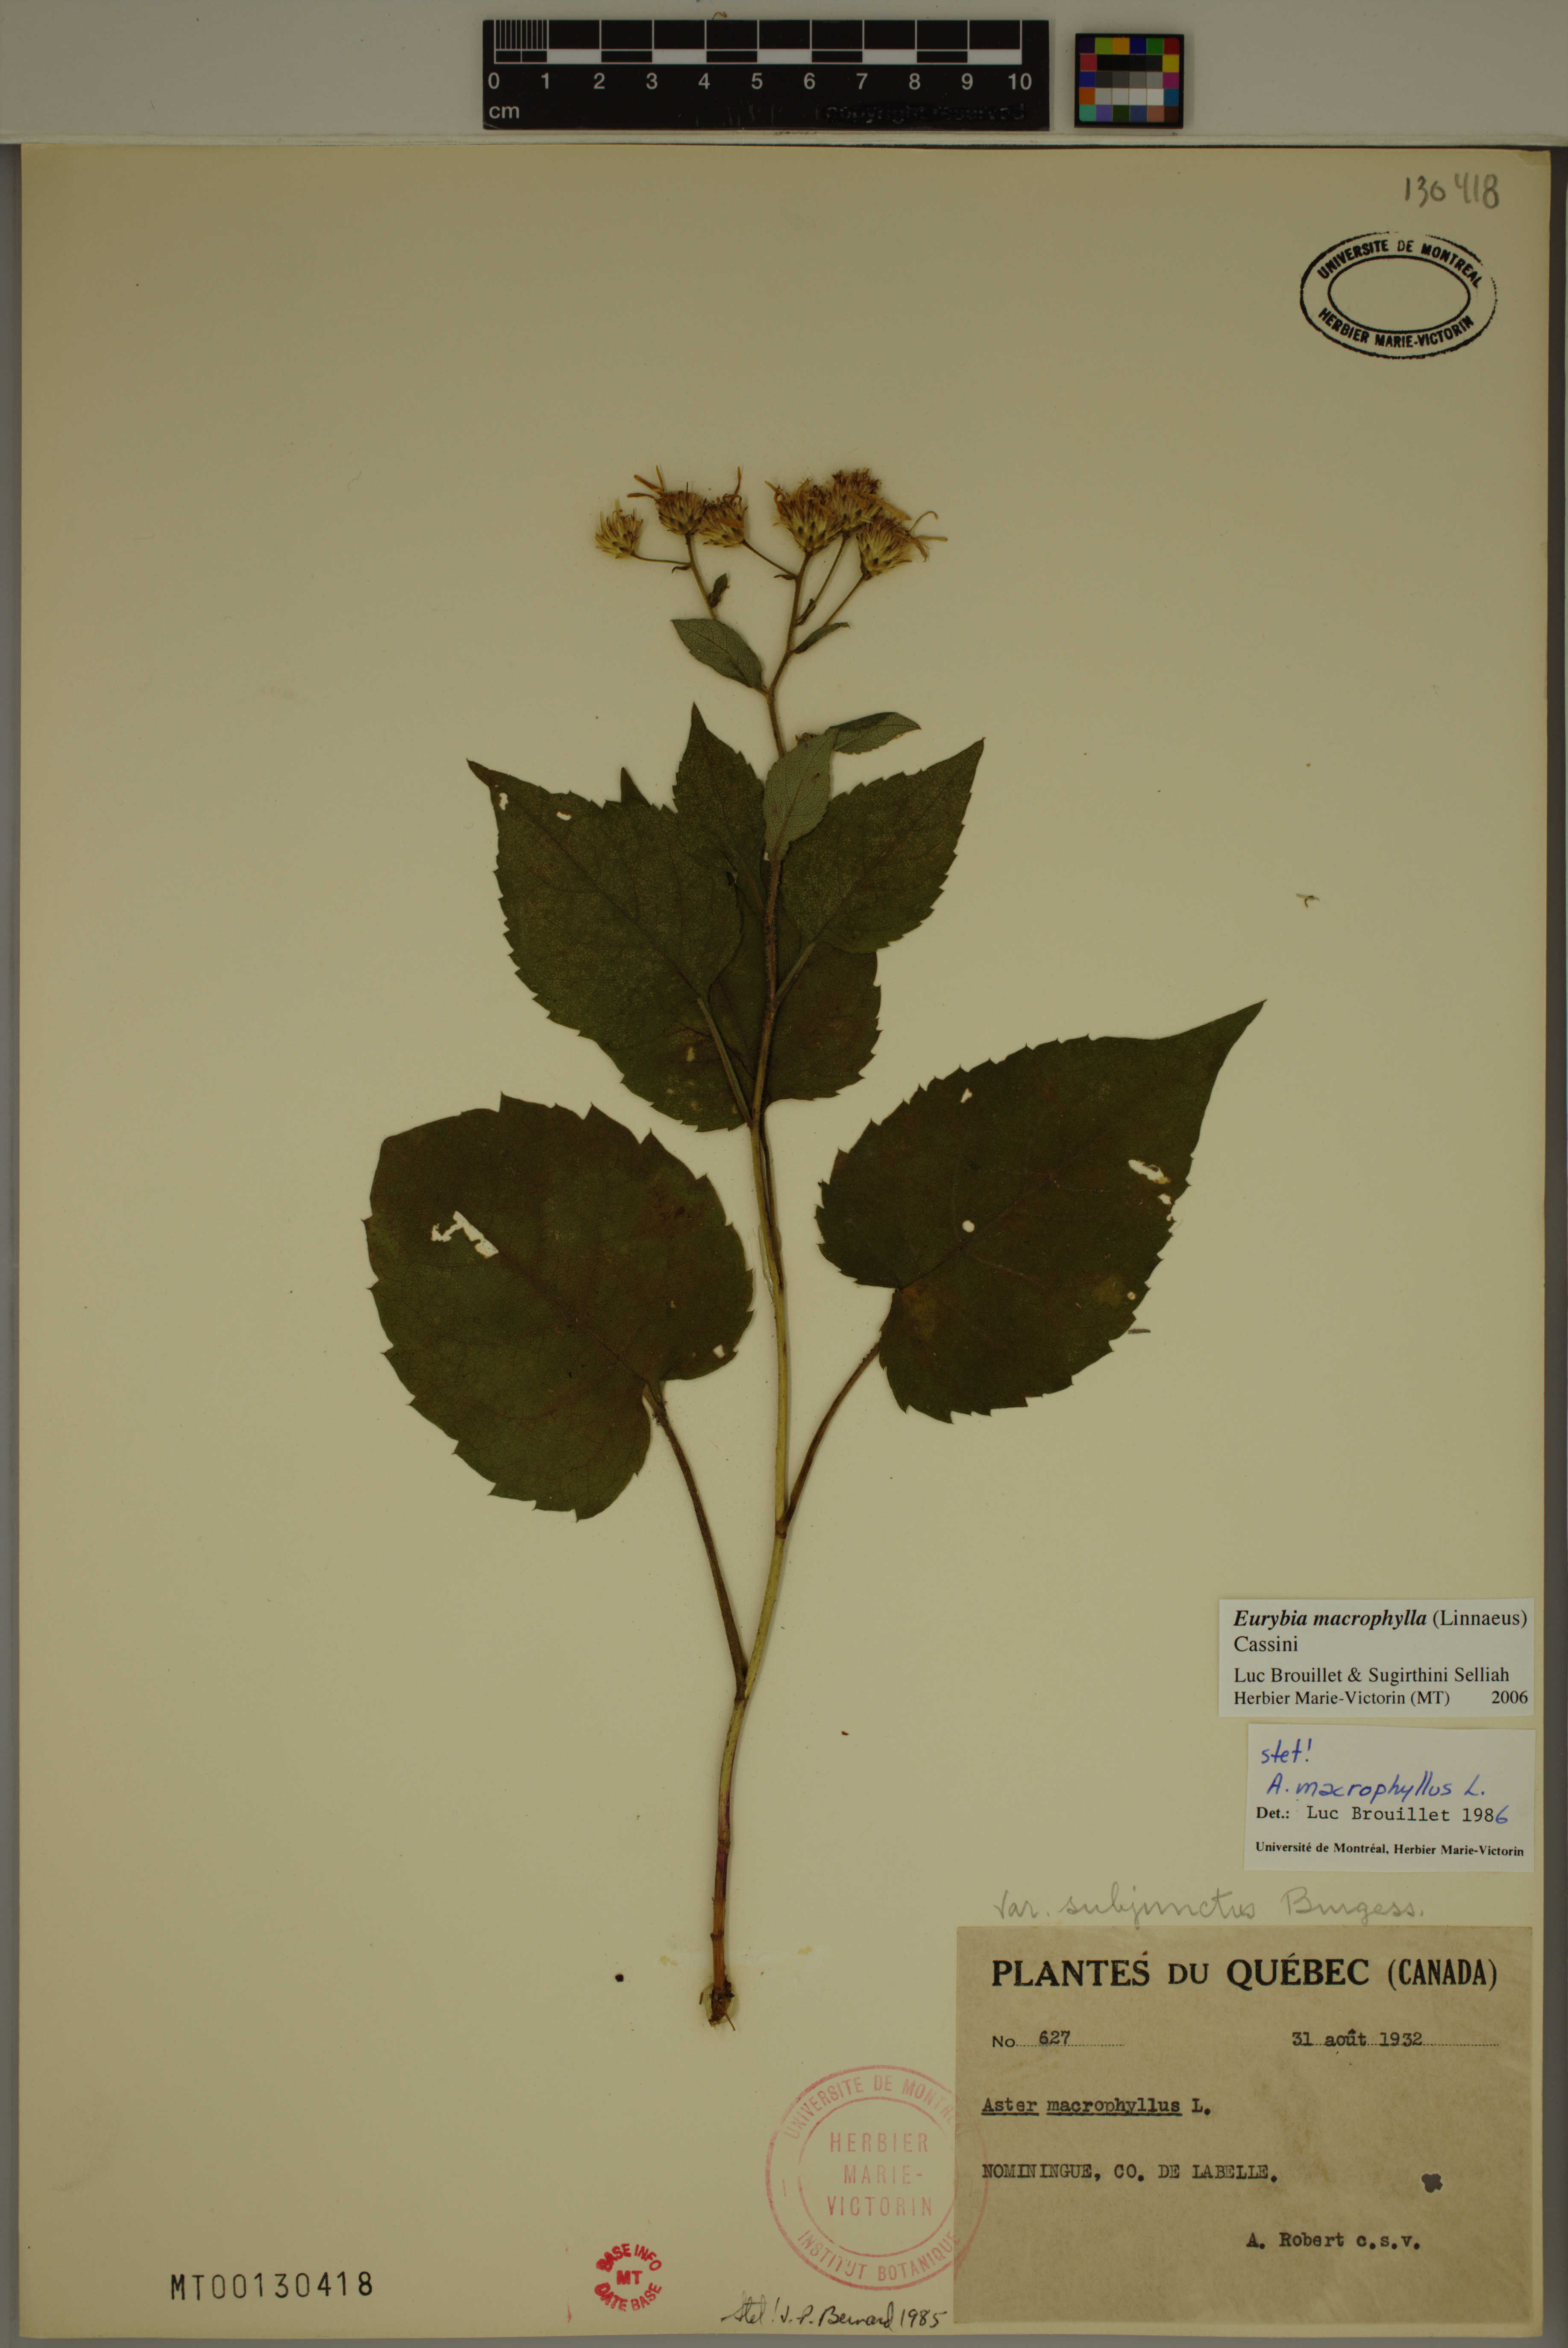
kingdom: Plantae
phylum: Tracheophyta
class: Magnoliopsida
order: Asterales
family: Asteraceae
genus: Eurybia
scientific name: Eurybia macrophylla
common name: Big-leaved aster
